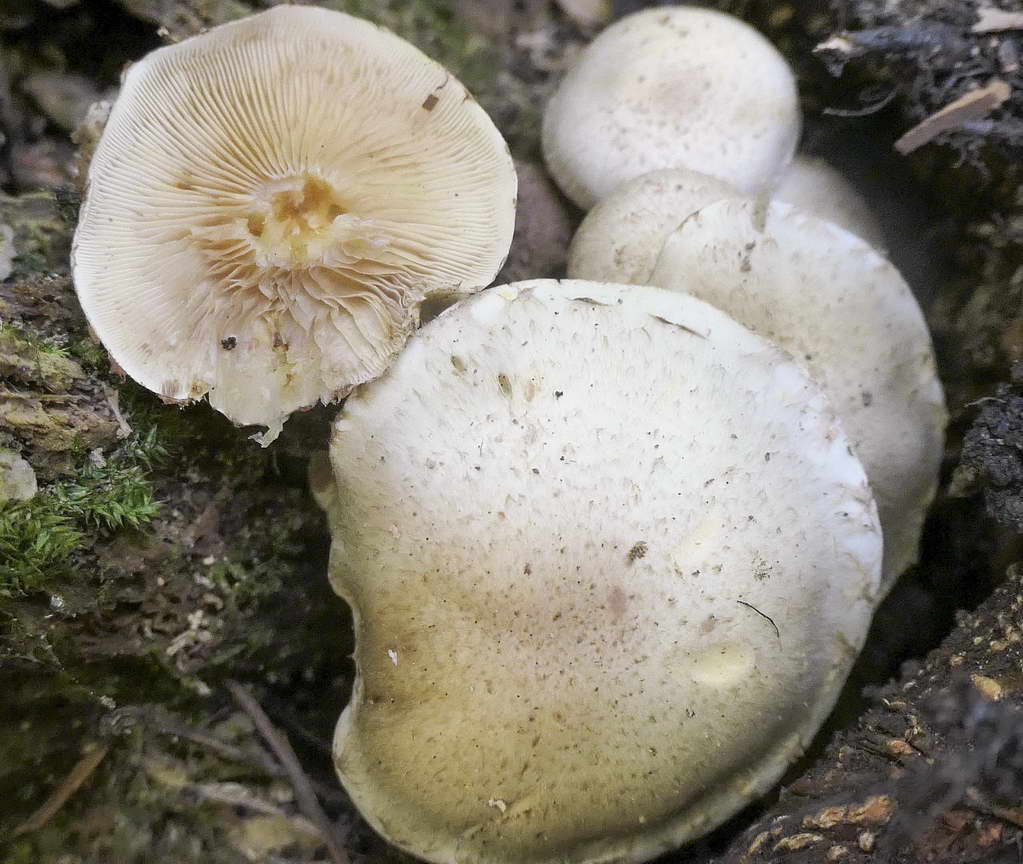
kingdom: Fungi
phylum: Basidiomycota
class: Agaricomycetes
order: Agaricales
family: Strophariaceae
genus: Pholiota
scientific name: Pholiota gummosa
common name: grøngul skælhat
